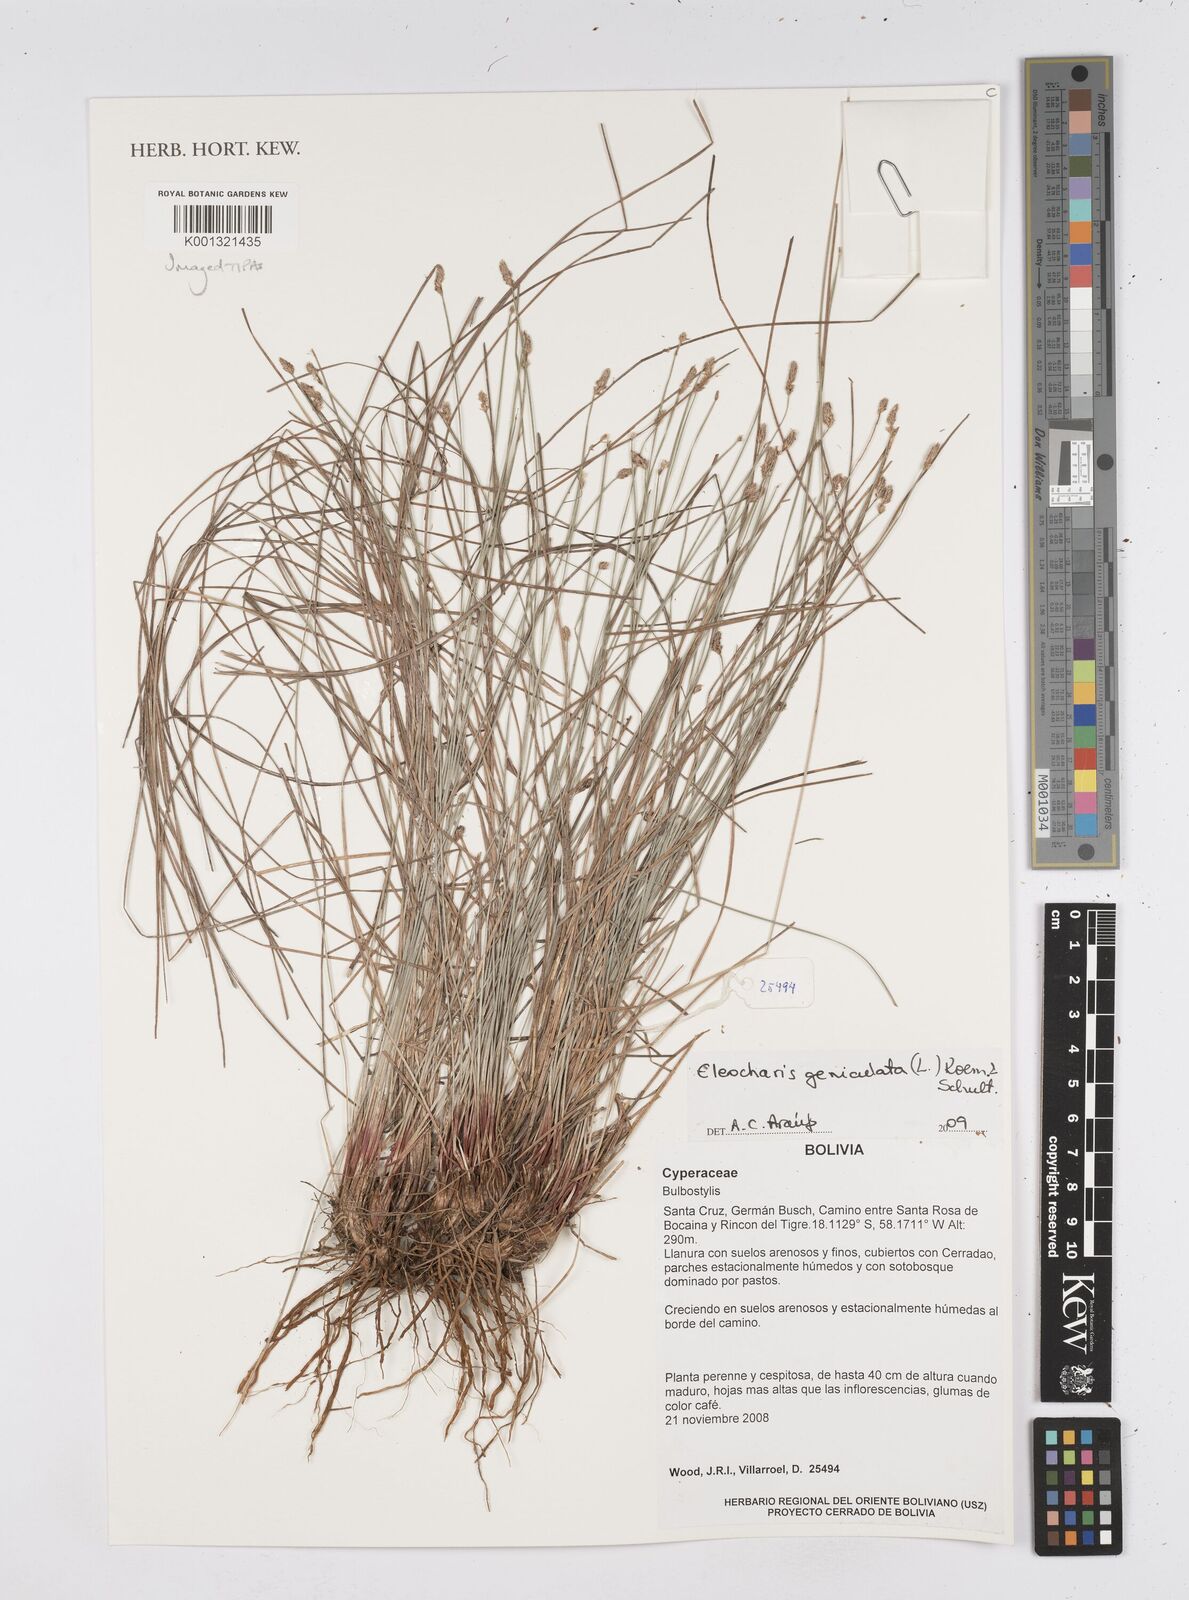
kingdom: Plantae
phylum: Tracheophyta
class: Liliopsida
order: Poales
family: Cyperaceae
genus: Eleocharis
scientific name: Eleocharis geniculata
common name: Canada spikesedge
